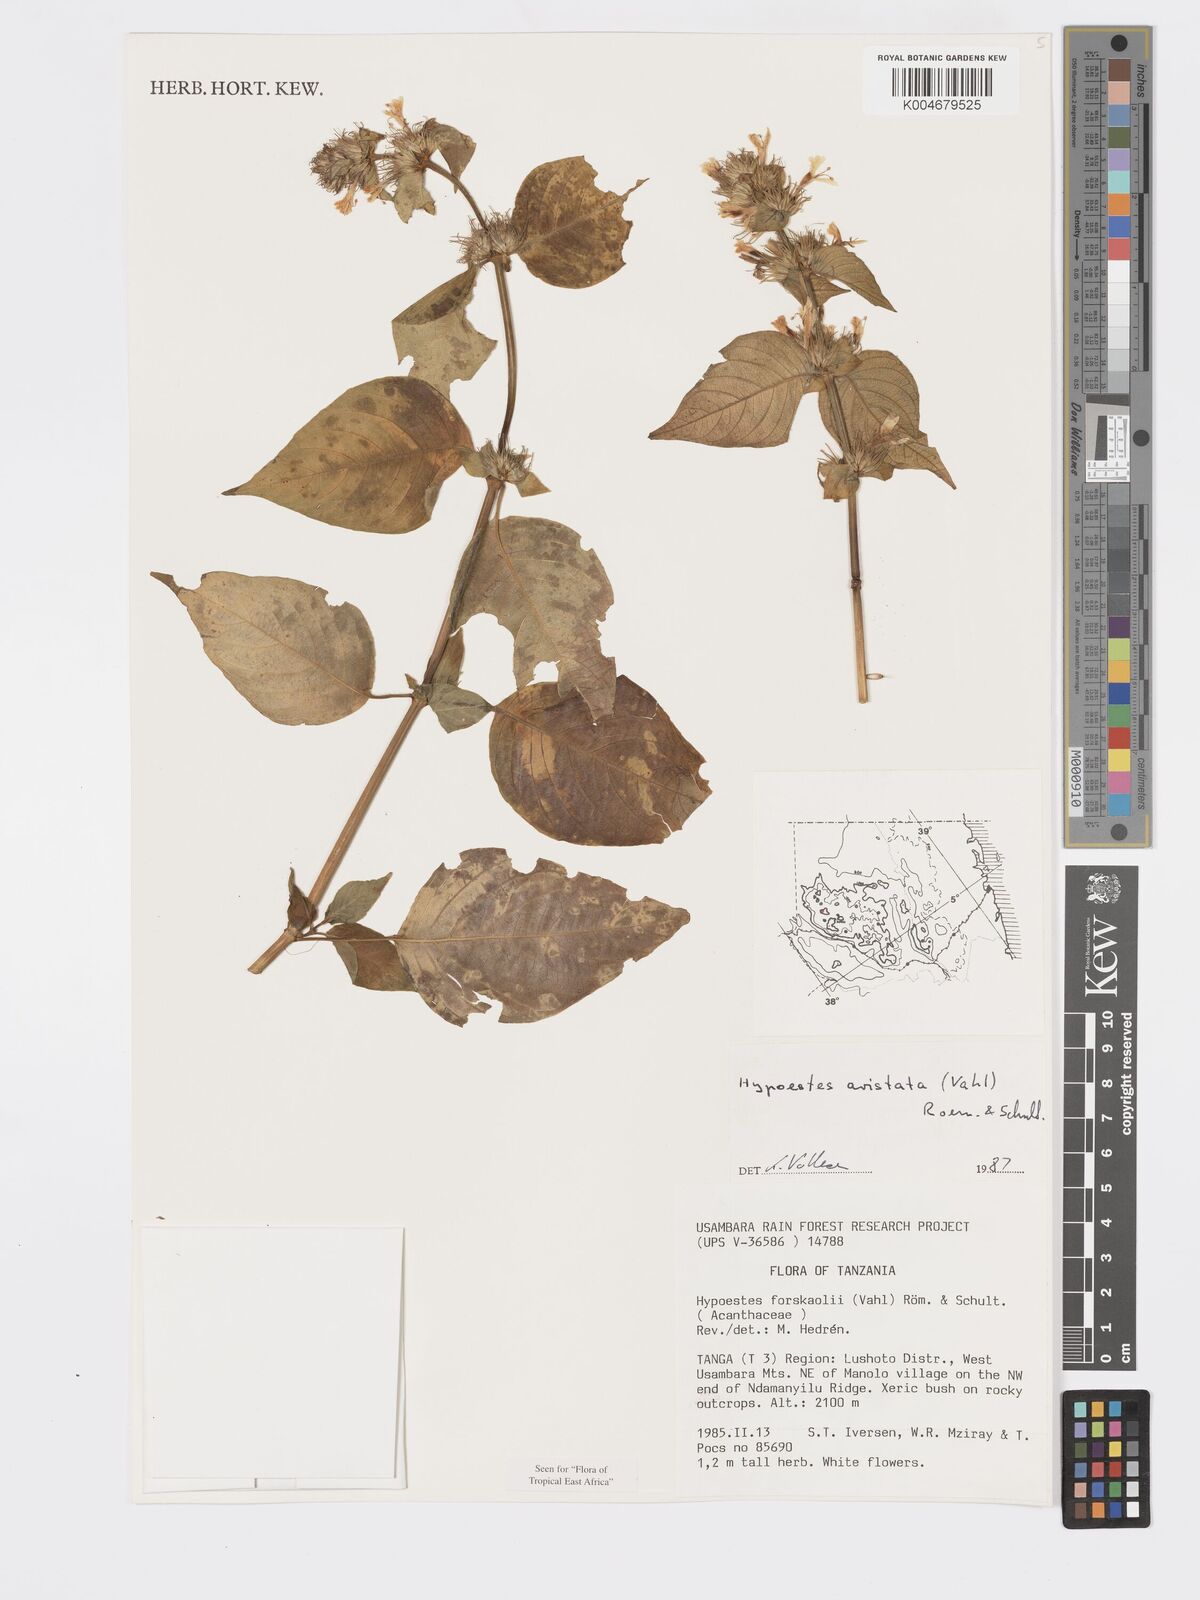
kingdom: Plantae
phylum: Tracheophyta
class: Magnoliopsida
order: Lamiales
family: Acanthaceae
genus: Hypoestes
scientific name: Hypoestes aristata
